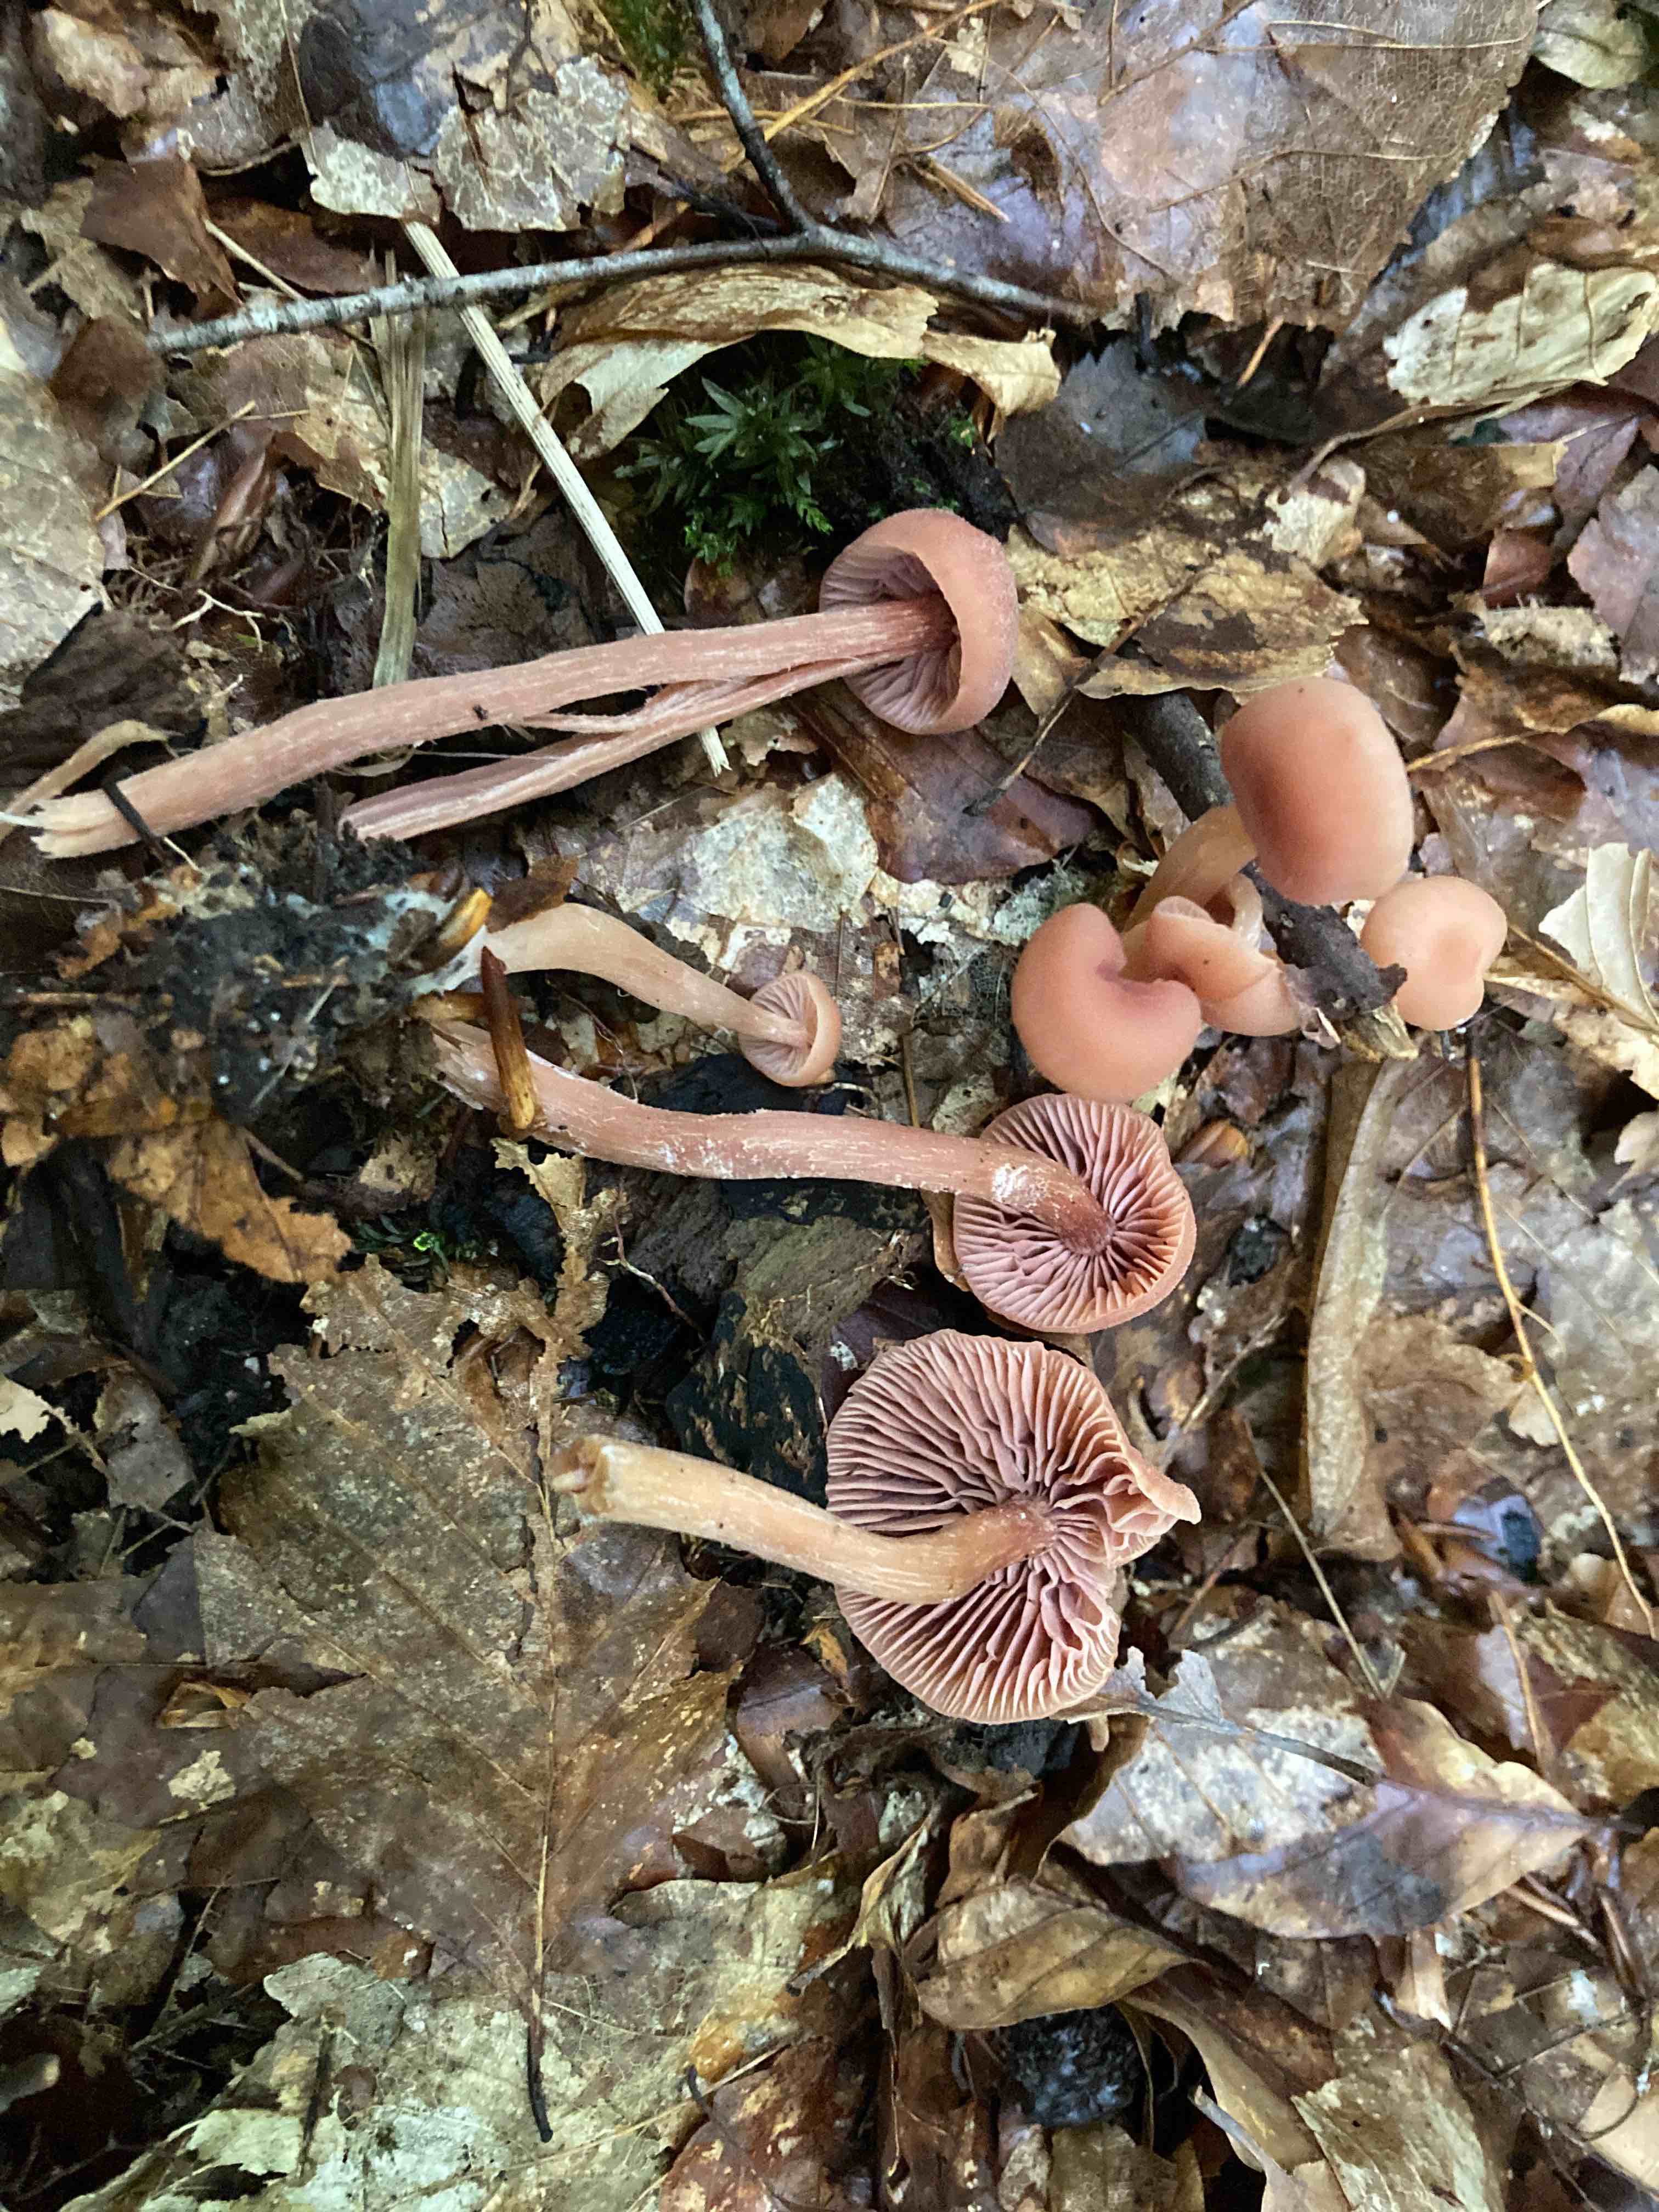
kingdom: Fungi
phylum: Basidiomycota
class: Agaricomycetes
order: Agaricales
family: Hydnangiaceae
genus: Laccaria
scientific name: Laccaria laccata
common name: rød ametysthat
